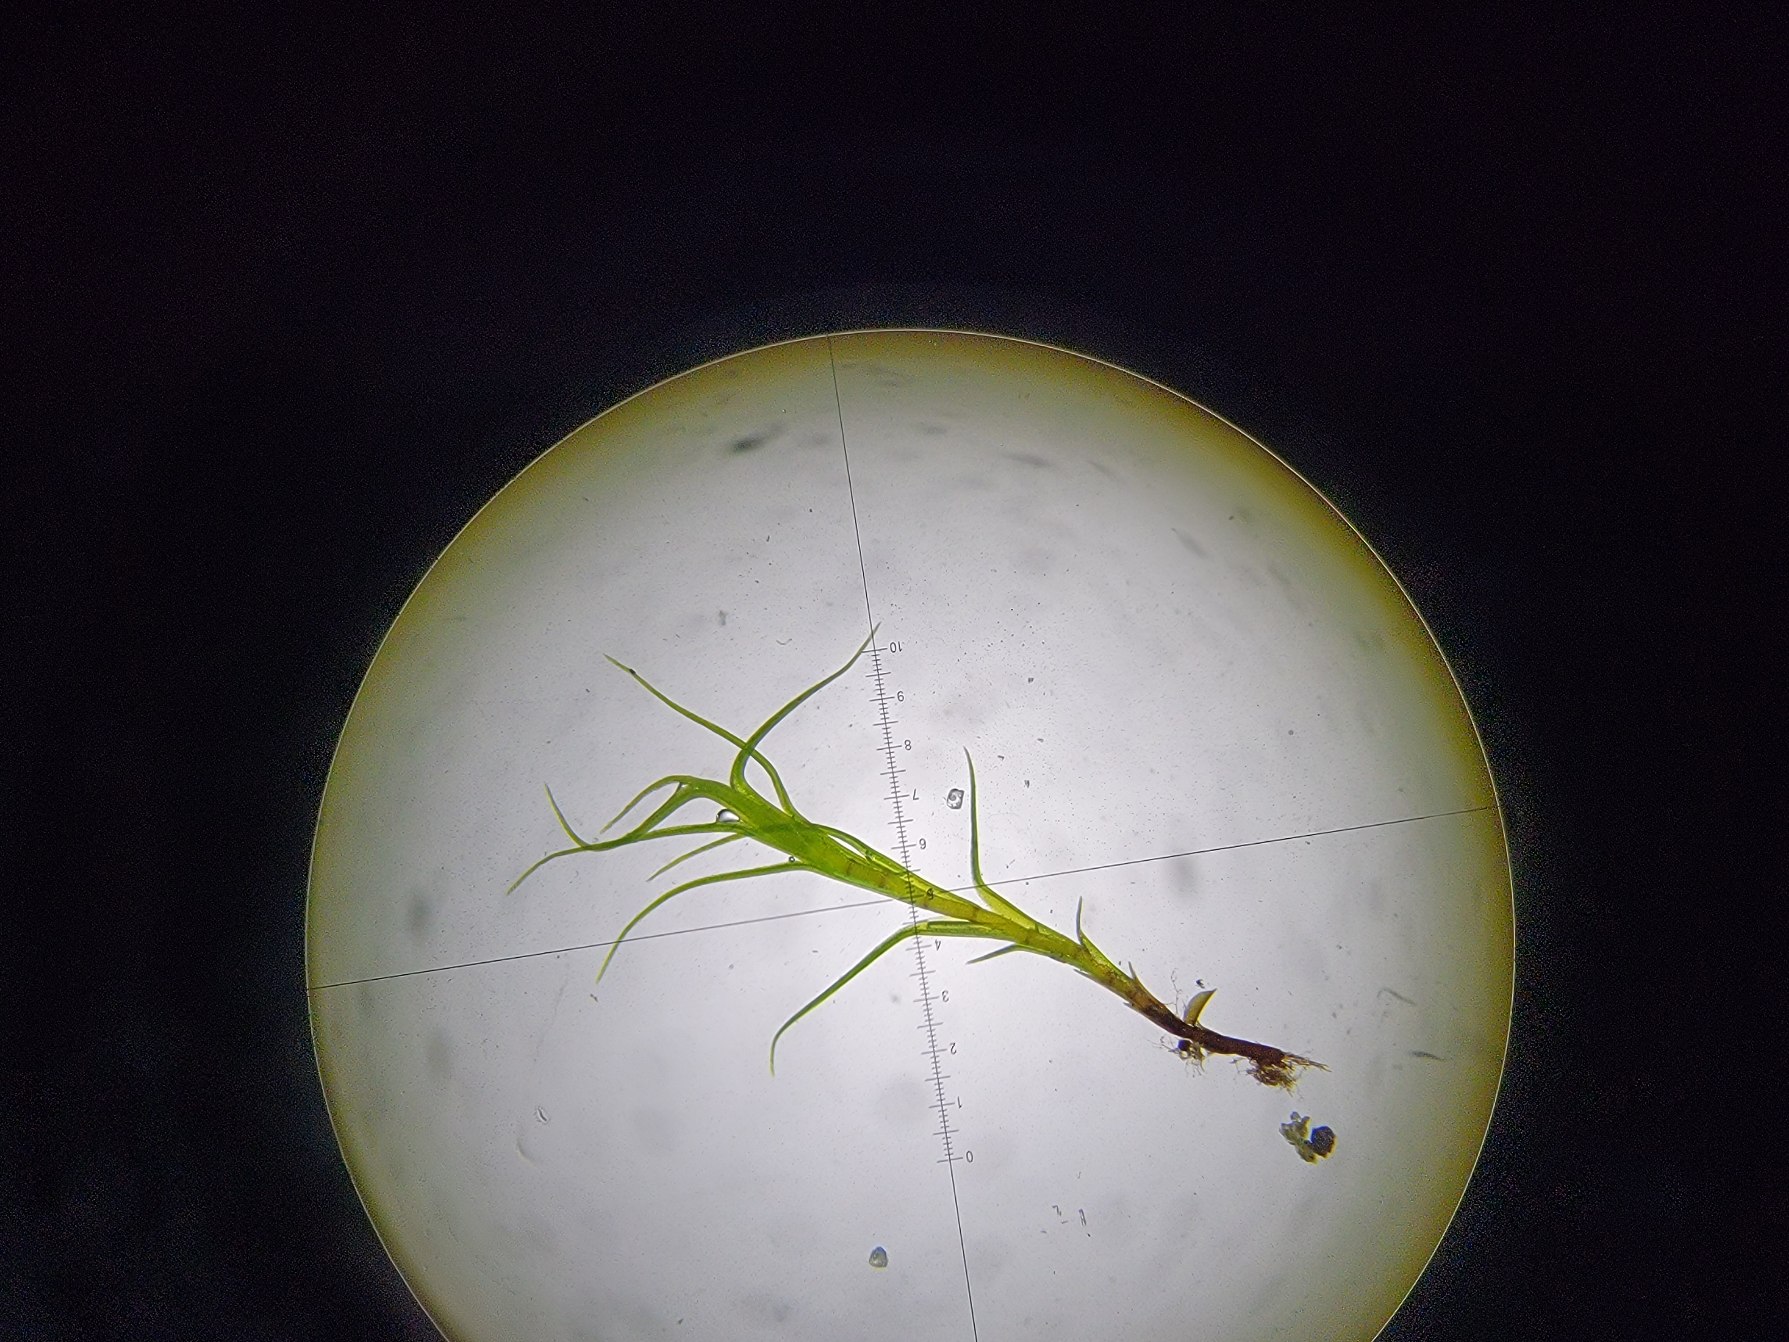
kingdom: Plantae
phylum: Bryophyta
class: Bryopsida
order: Scouleriales
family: Distichiaceae
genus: Distichium
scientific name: Distichium capillaceum
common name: Ret toradsmos
